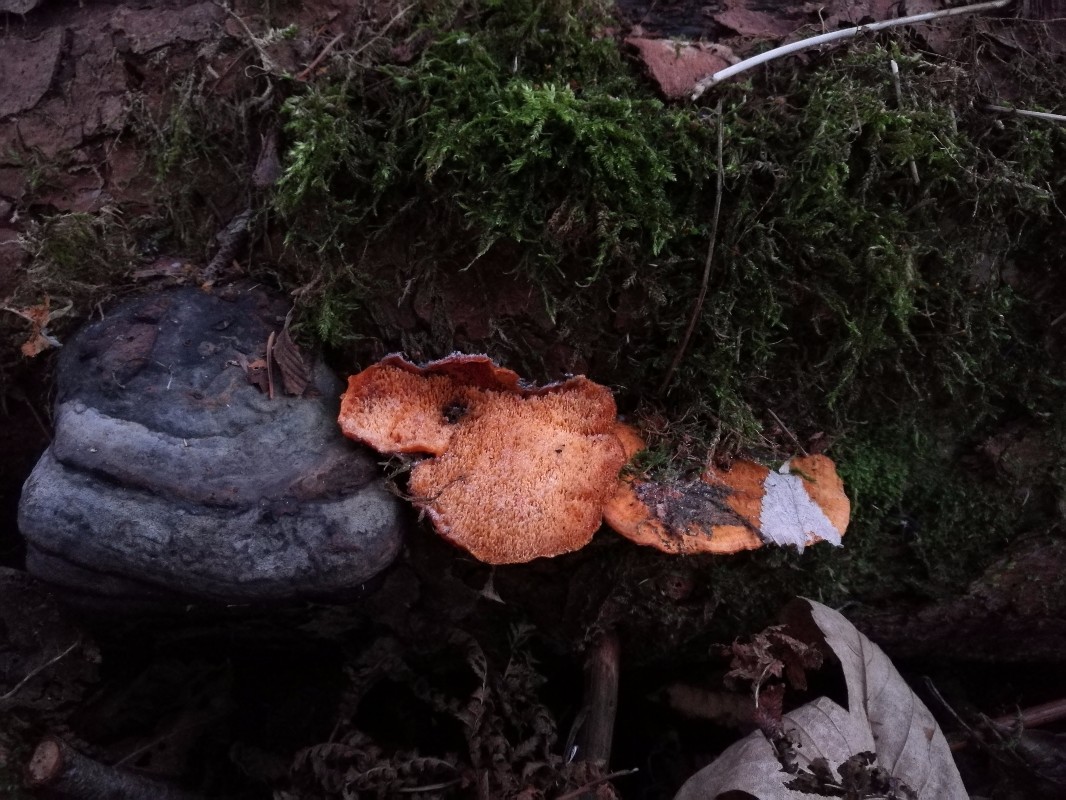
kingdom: Fungi
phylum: Basidiomycota
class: Agaricomycetes
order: Polyporales
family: Pycnoporellaceae
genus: Pycnoporellus
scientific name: Pycnoporellus fulgens
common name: flammeporesvamp
